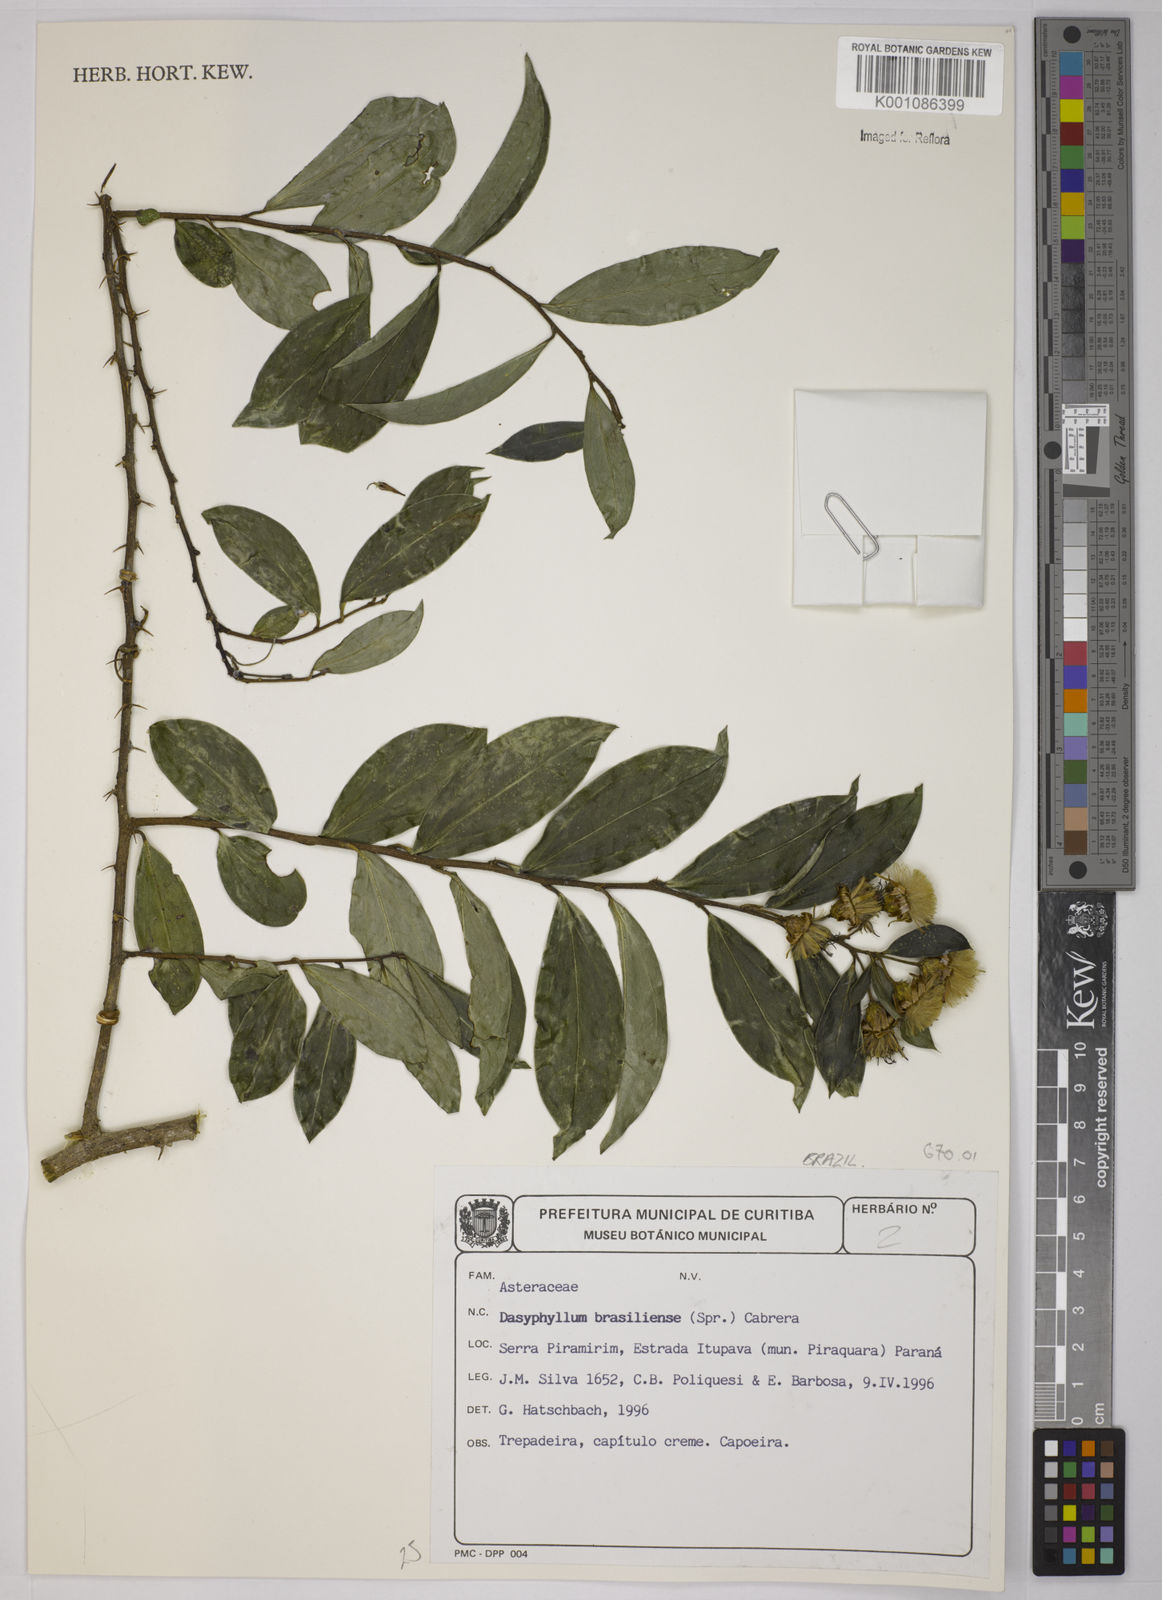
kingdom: Plantae
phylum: Tracheophyta
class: Magnoliopsida
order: Asterales
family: Asteraceae
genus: Dasyphyllum
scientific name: Dasyphyllum brasiliense
